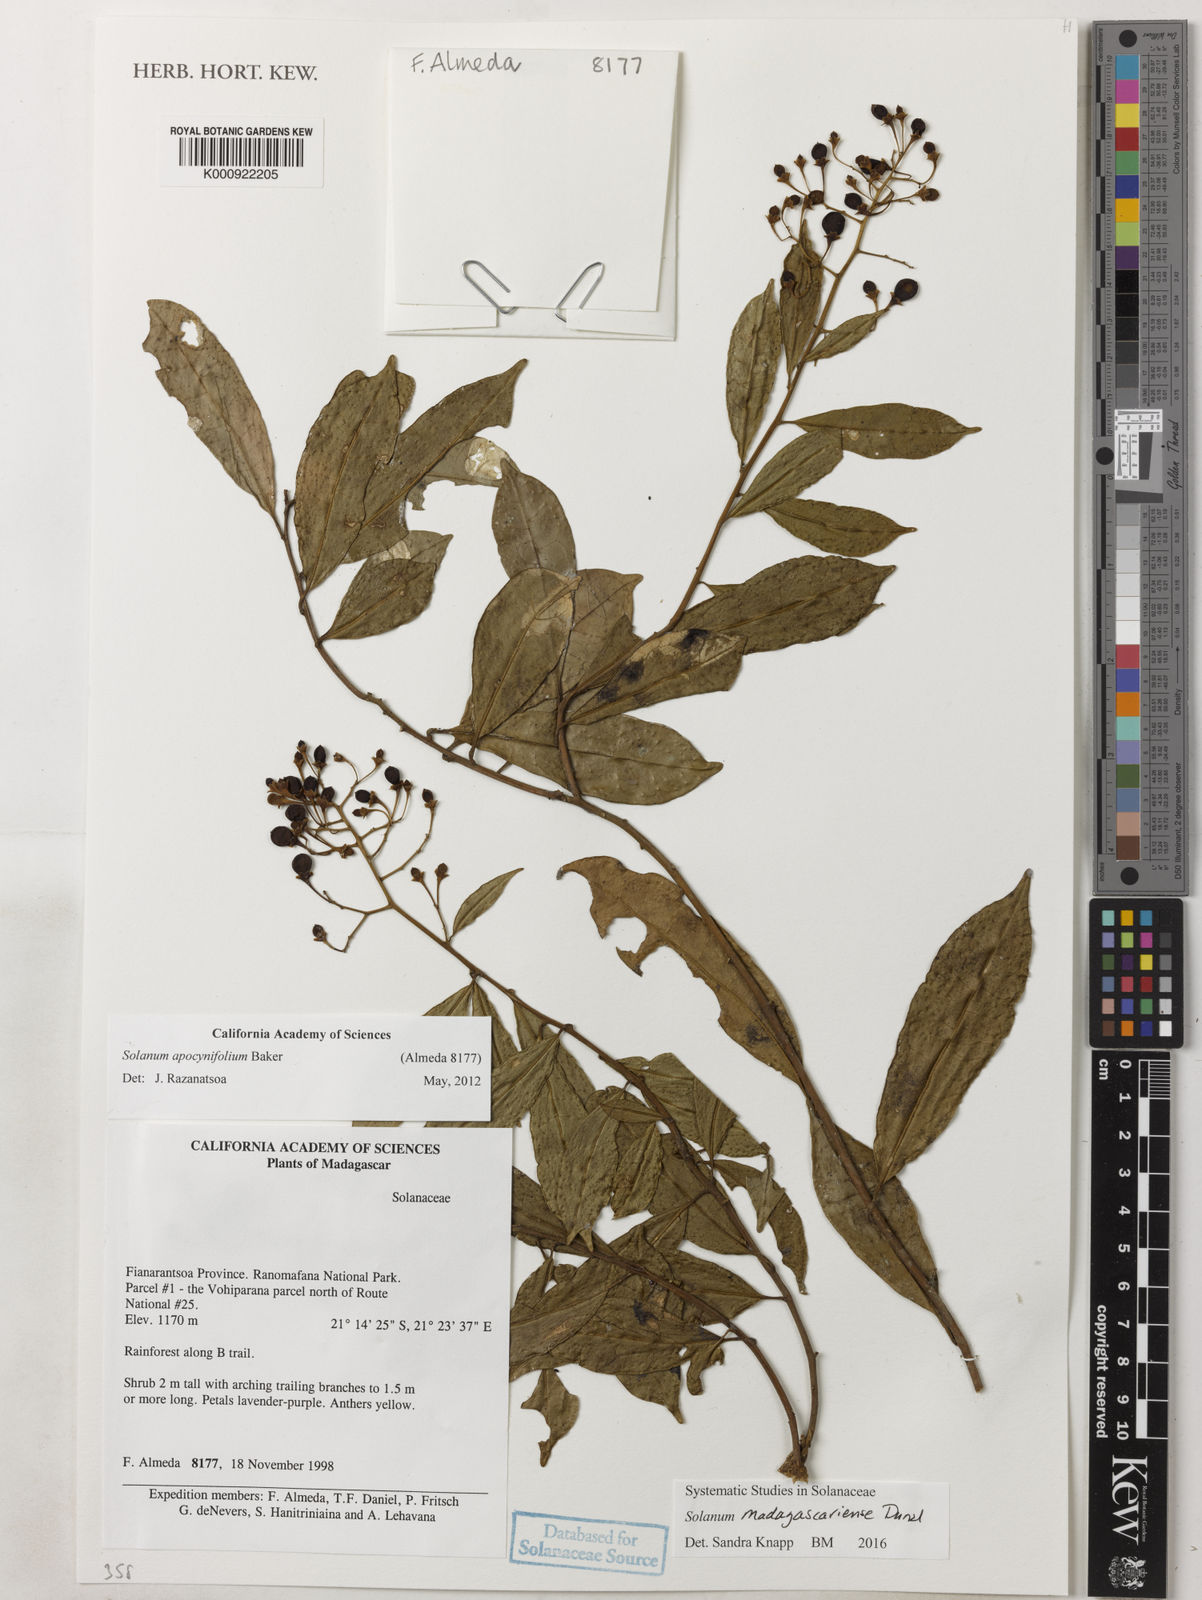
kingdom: Plantae
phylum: Tracheophyta
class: Magnoliopsida
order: Solanales
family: Solanaceae
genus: Solanum
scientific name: Solanum madagascariense
